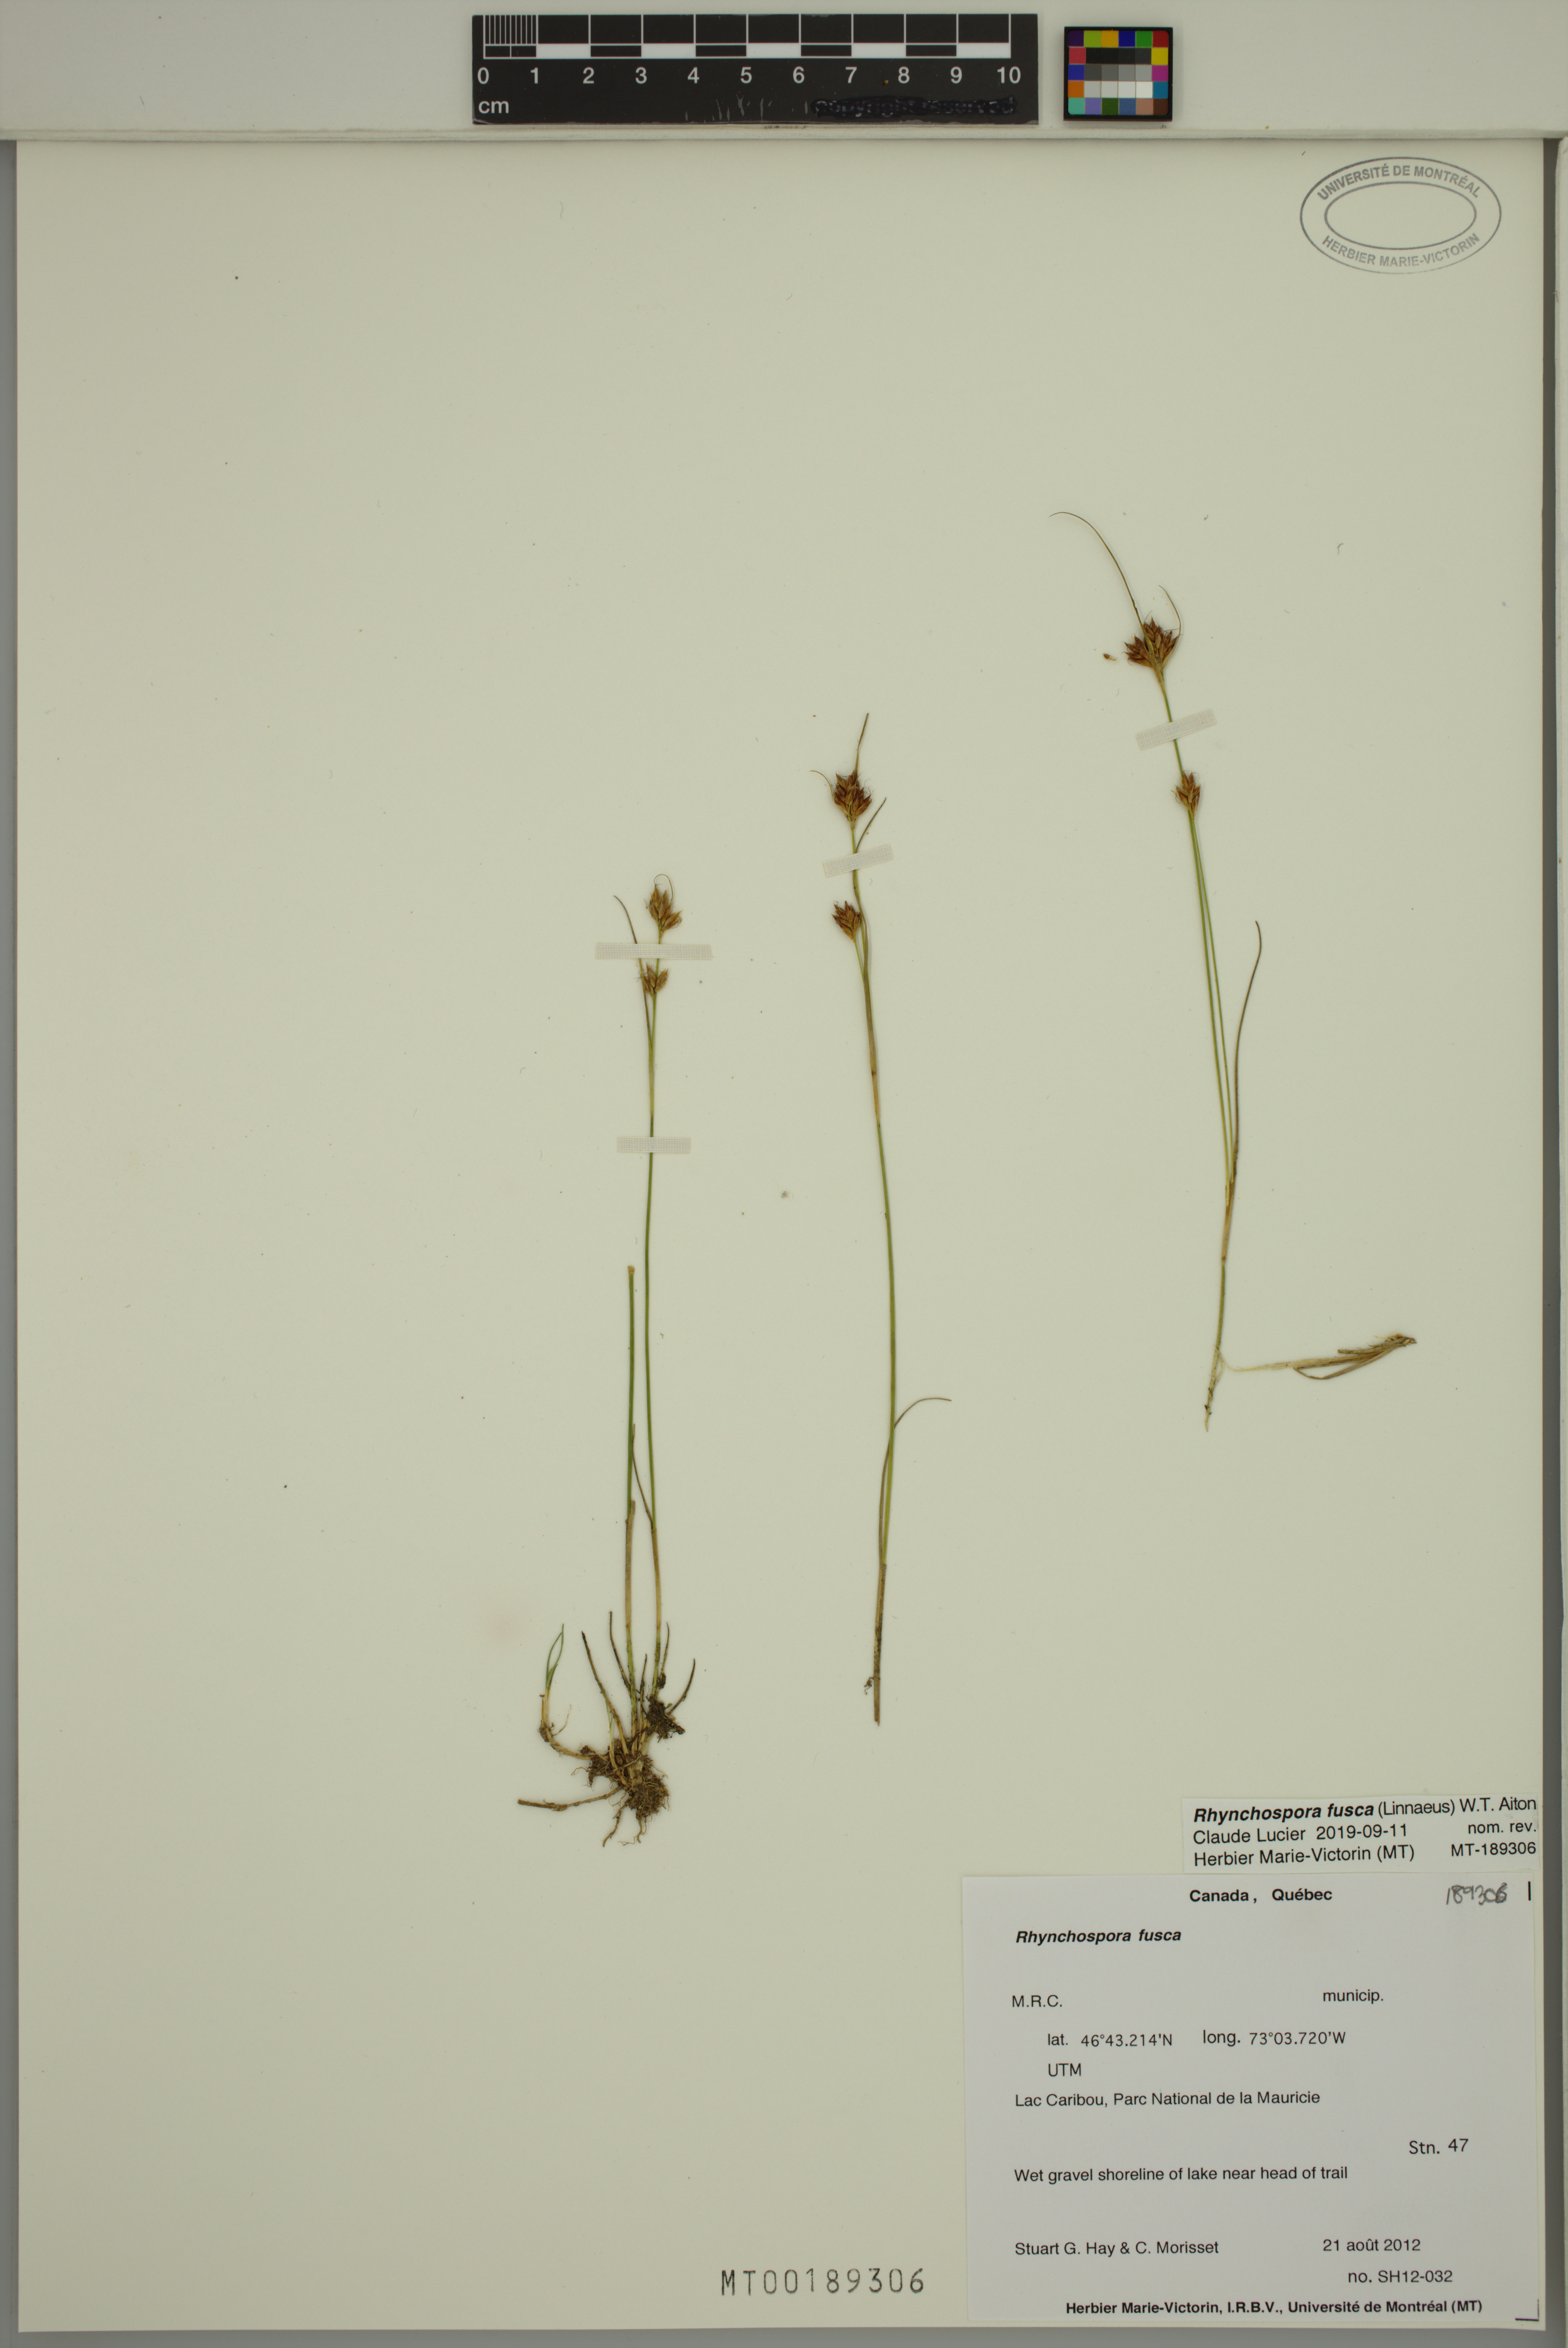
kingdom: Plantae
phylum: Tracheophyta
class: Liliopsida
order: Poales
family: Cyperaceae
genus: Rhynchospora
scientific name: Rhynchospora fusca
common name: Brown beak-sedge
